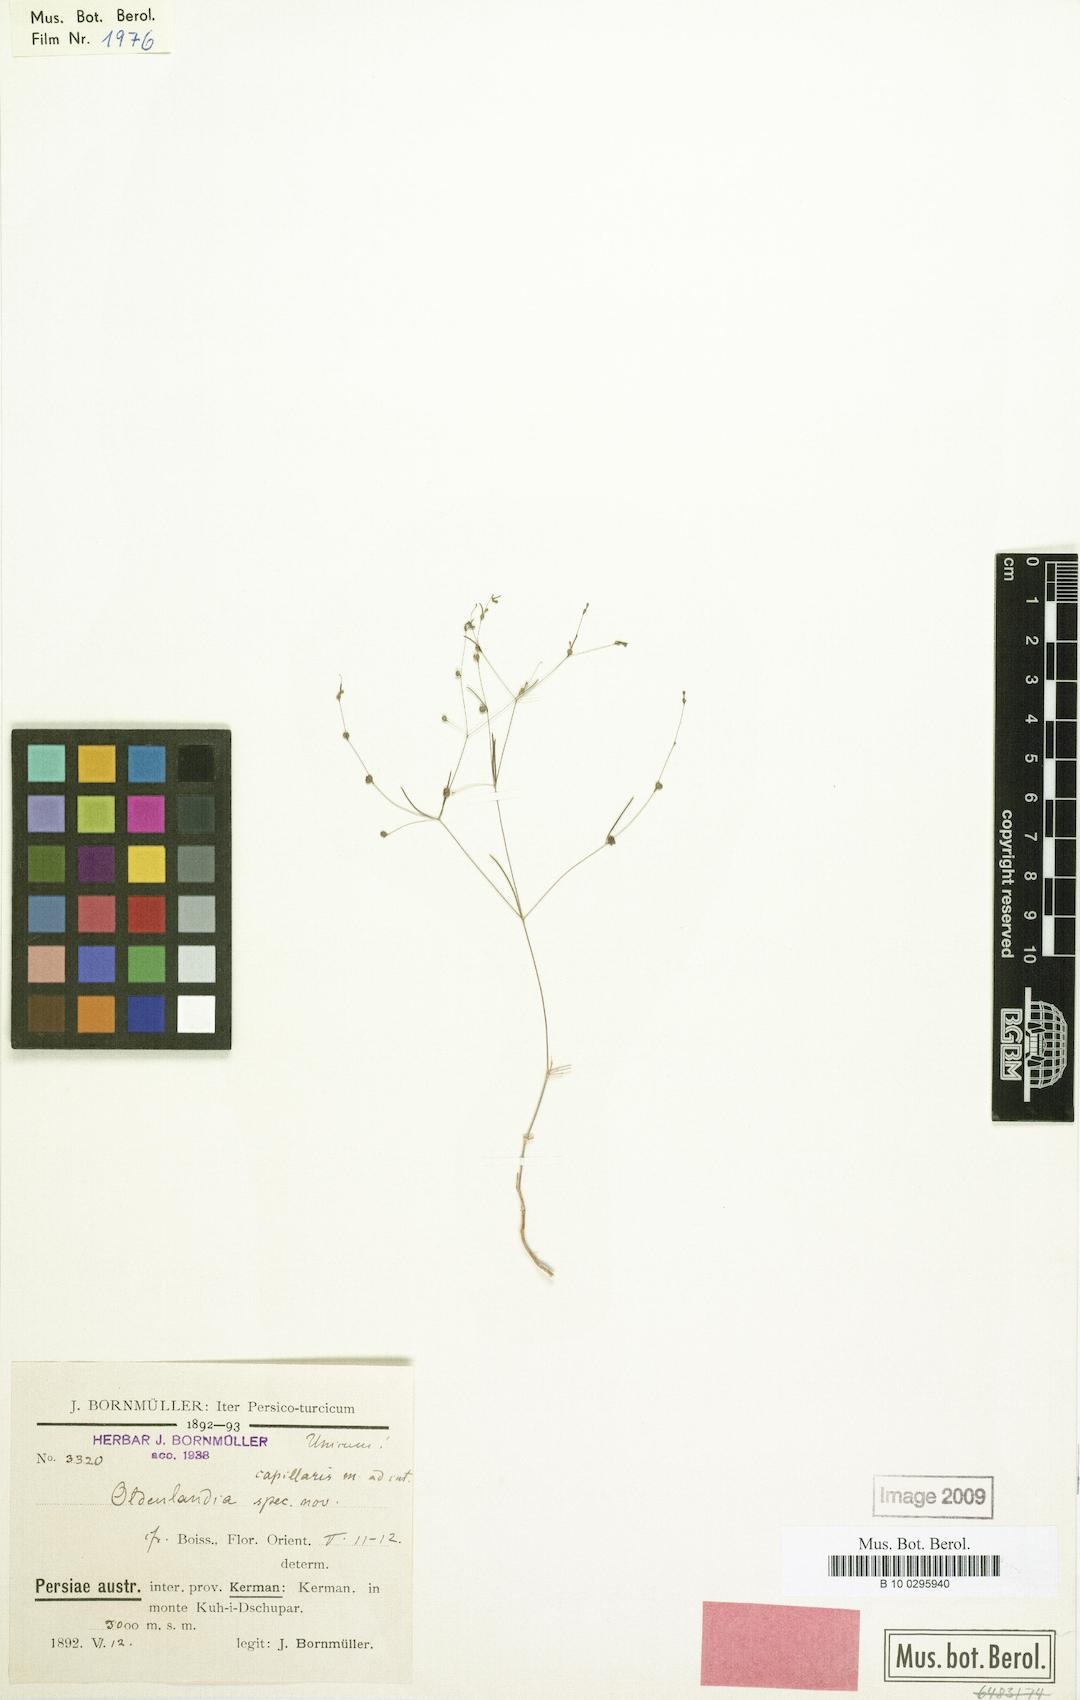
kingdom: Plantae
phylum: Tracheophyta
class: Magnoliopsida
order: Gentianales
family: Rubiaceae
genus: Oldenlandia
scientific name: Oldenlandia corymbosa
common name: Flat-top mille graines
